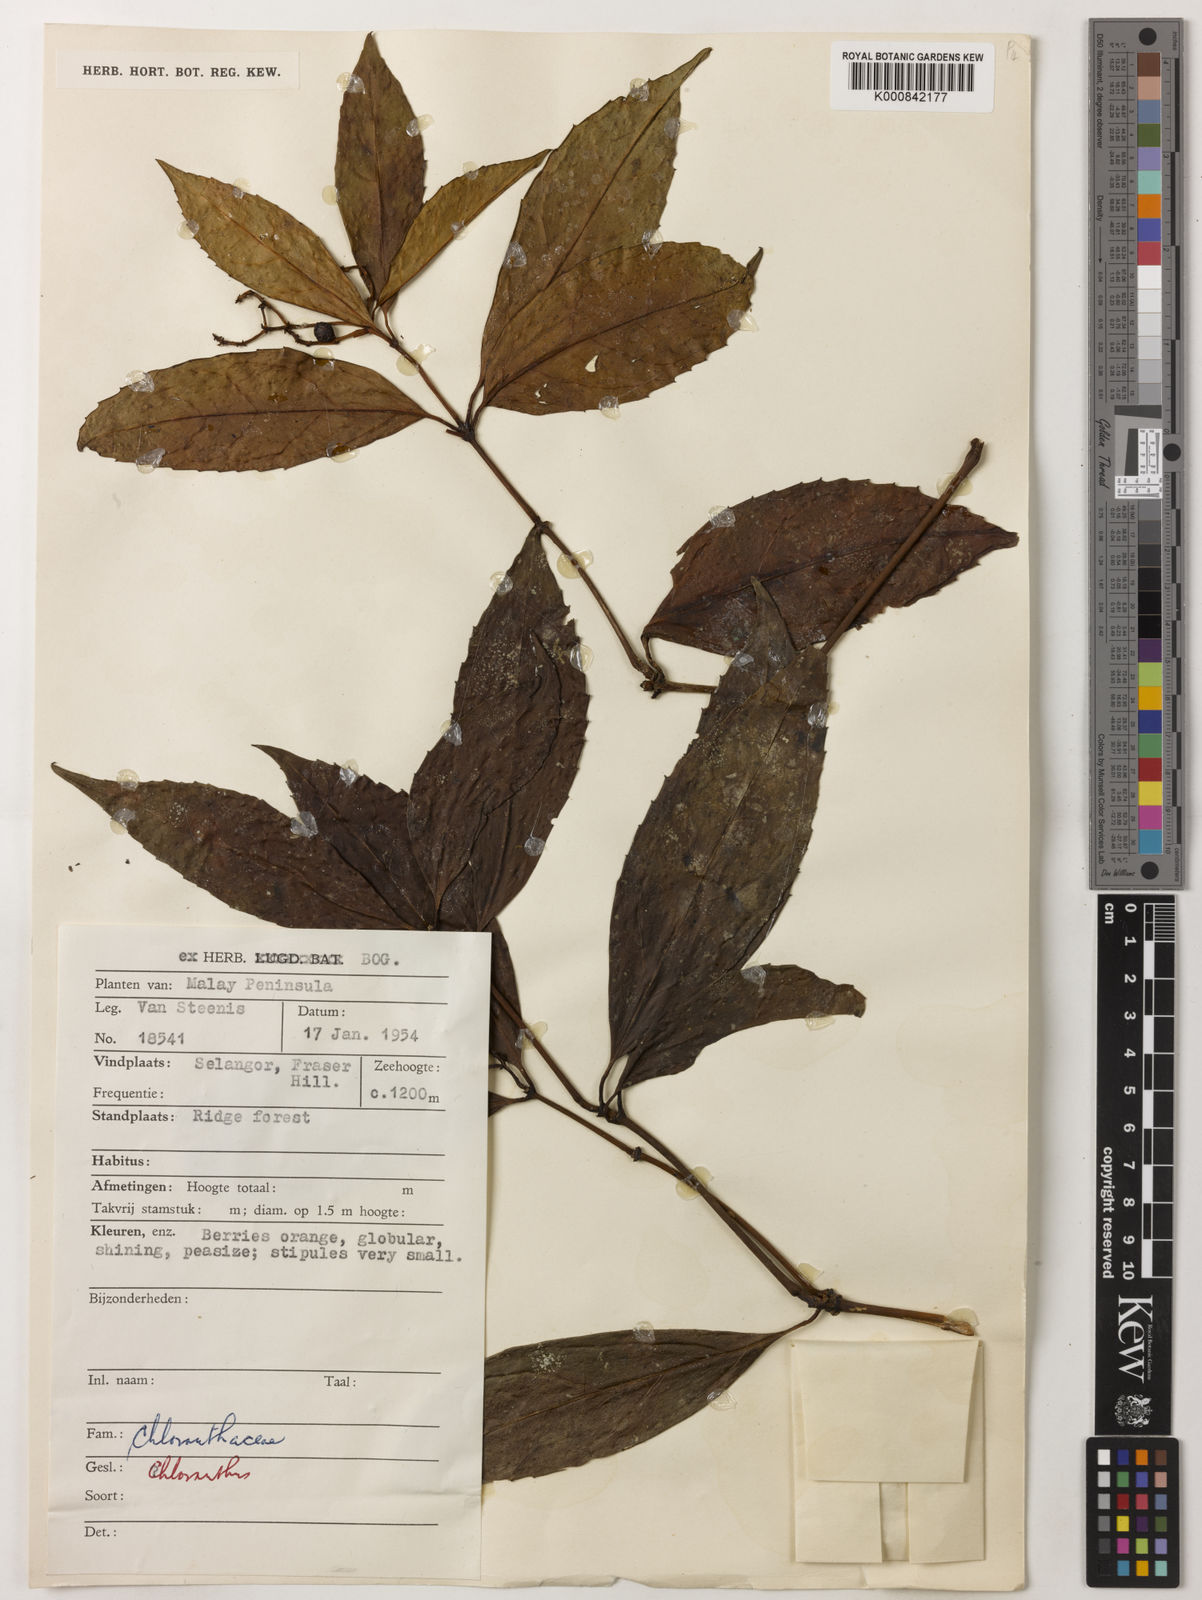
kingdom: Plantae
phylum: Tracheophyta
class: Magnoliopsida
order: Chloranthales
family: Chloranthaceae
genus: Sarcandra
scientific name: Sarcandra glabra
